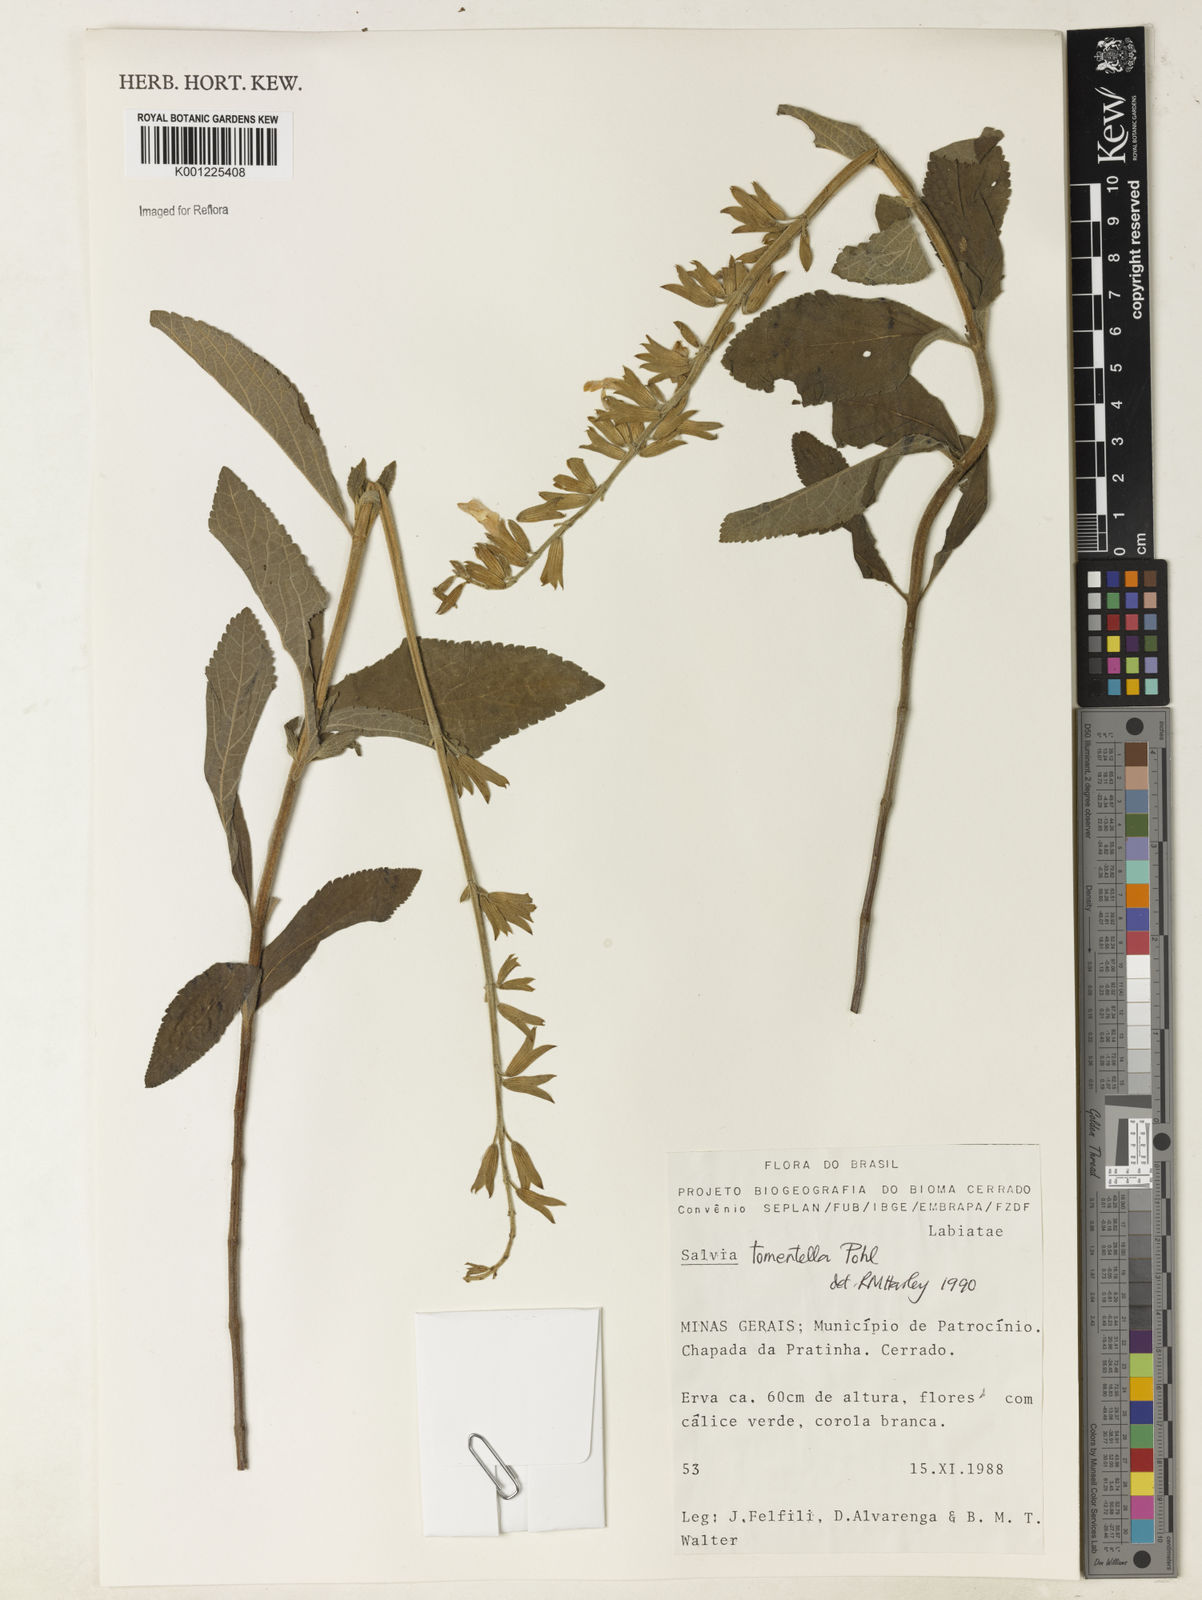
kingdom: Plantae
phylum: Tracheophyta
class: Magnoliopsida
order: Lamiales
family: Lamiaceae
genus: Salvia
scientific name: Salvia tomentella
